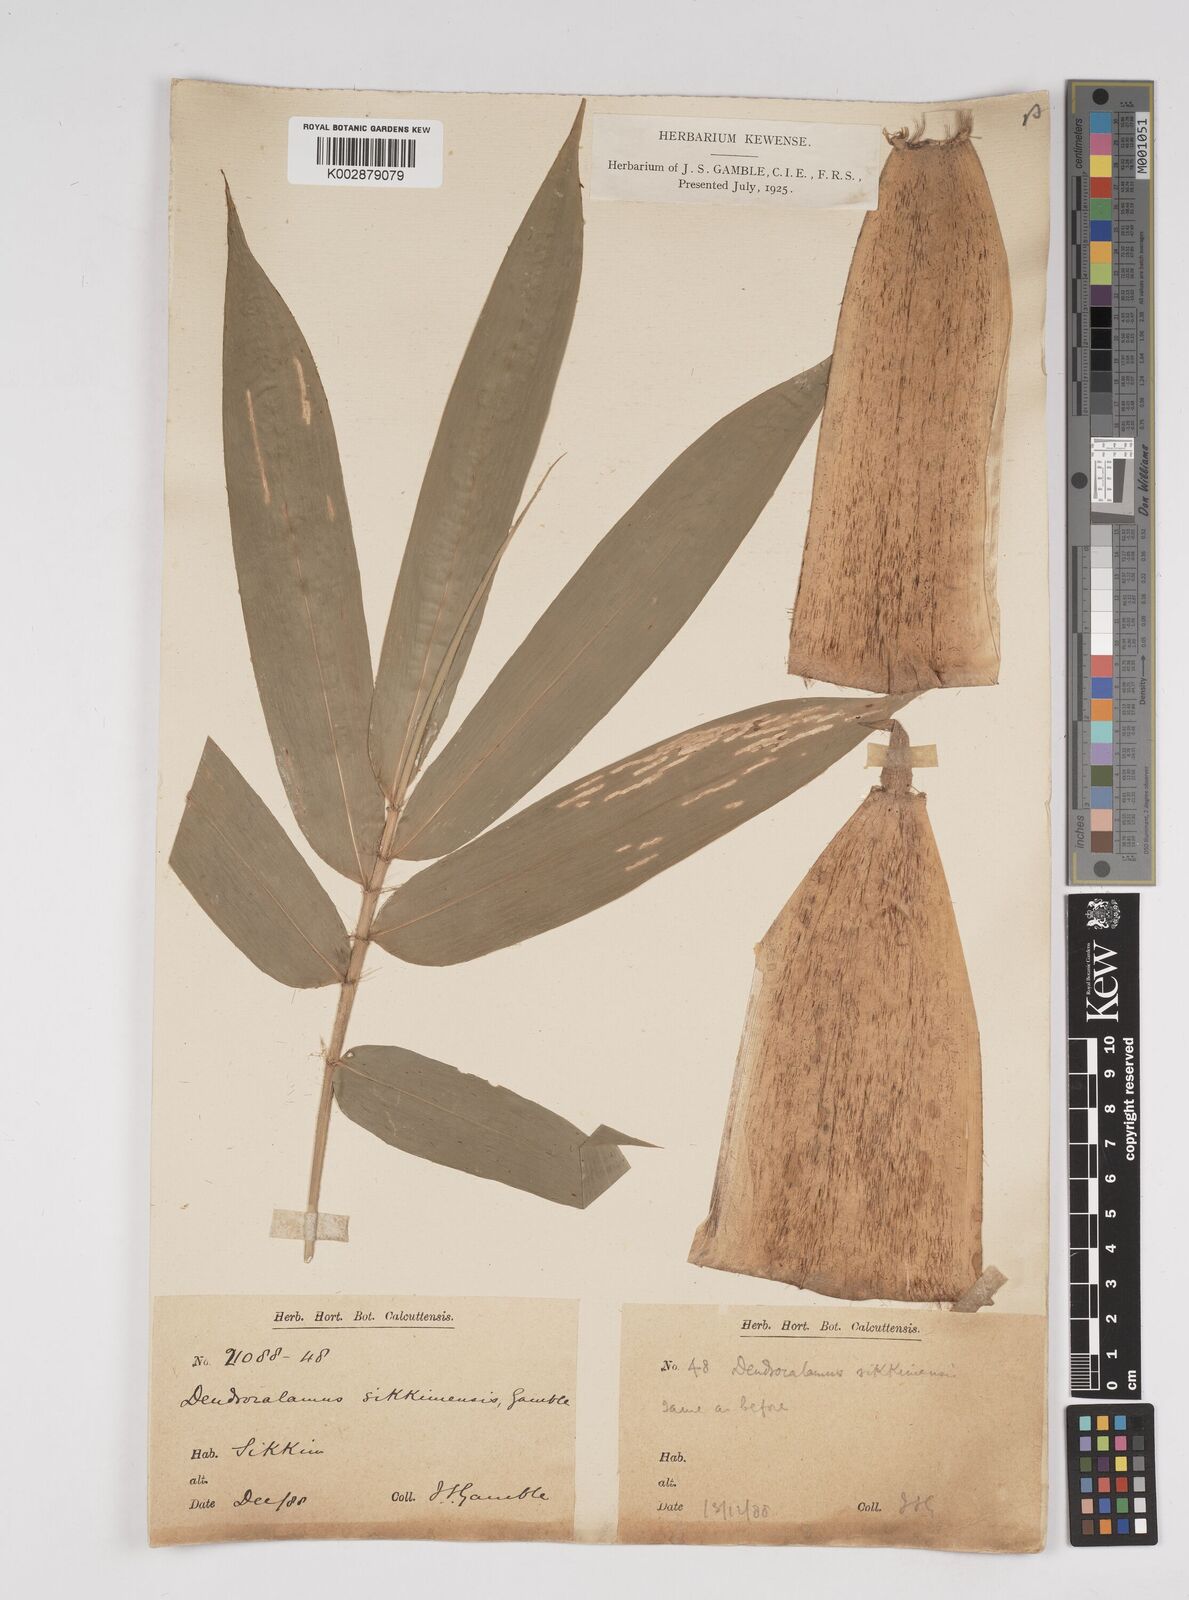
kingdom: Plantae
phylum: Tracheophyta
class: Liliopsida
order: Poales
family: Poaceae
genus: Dendrocalamus
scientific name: Dendrocalamus sikkimensis
